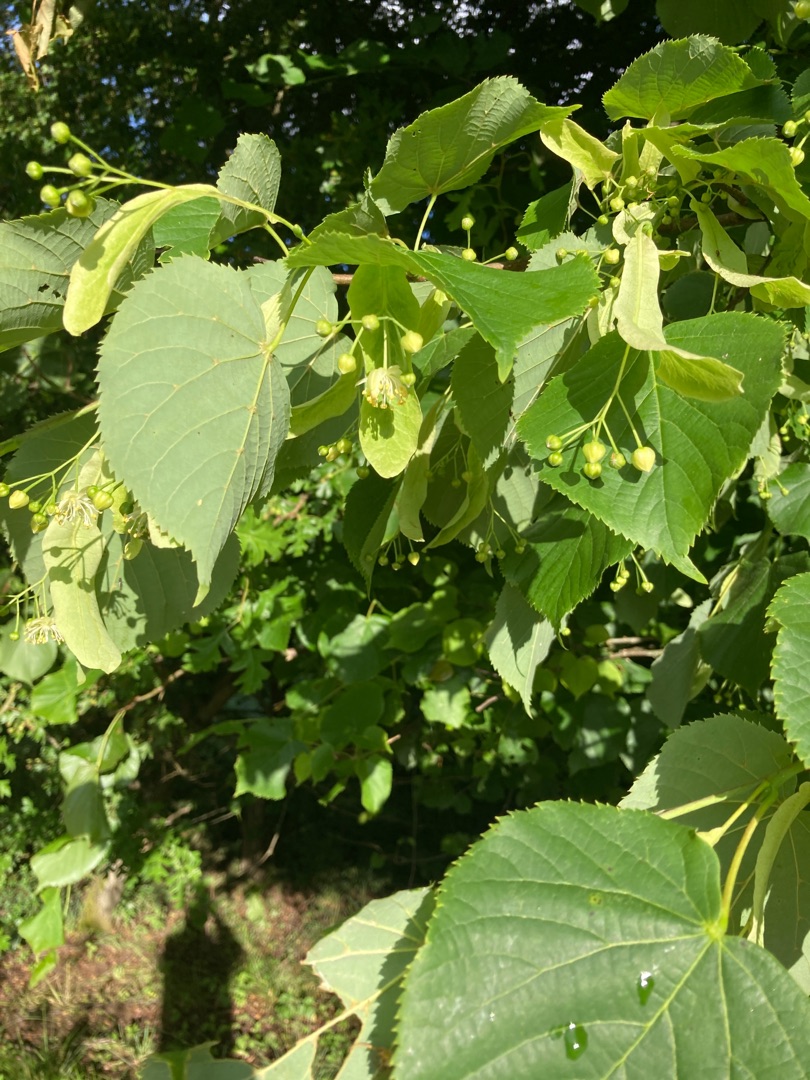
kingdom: Plantae
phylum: Tracheophyta
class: Magnoliopsida
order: Malvales
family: Malvaceae
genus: Tilia
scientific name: Tilia cordata
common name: Småbladet lind
